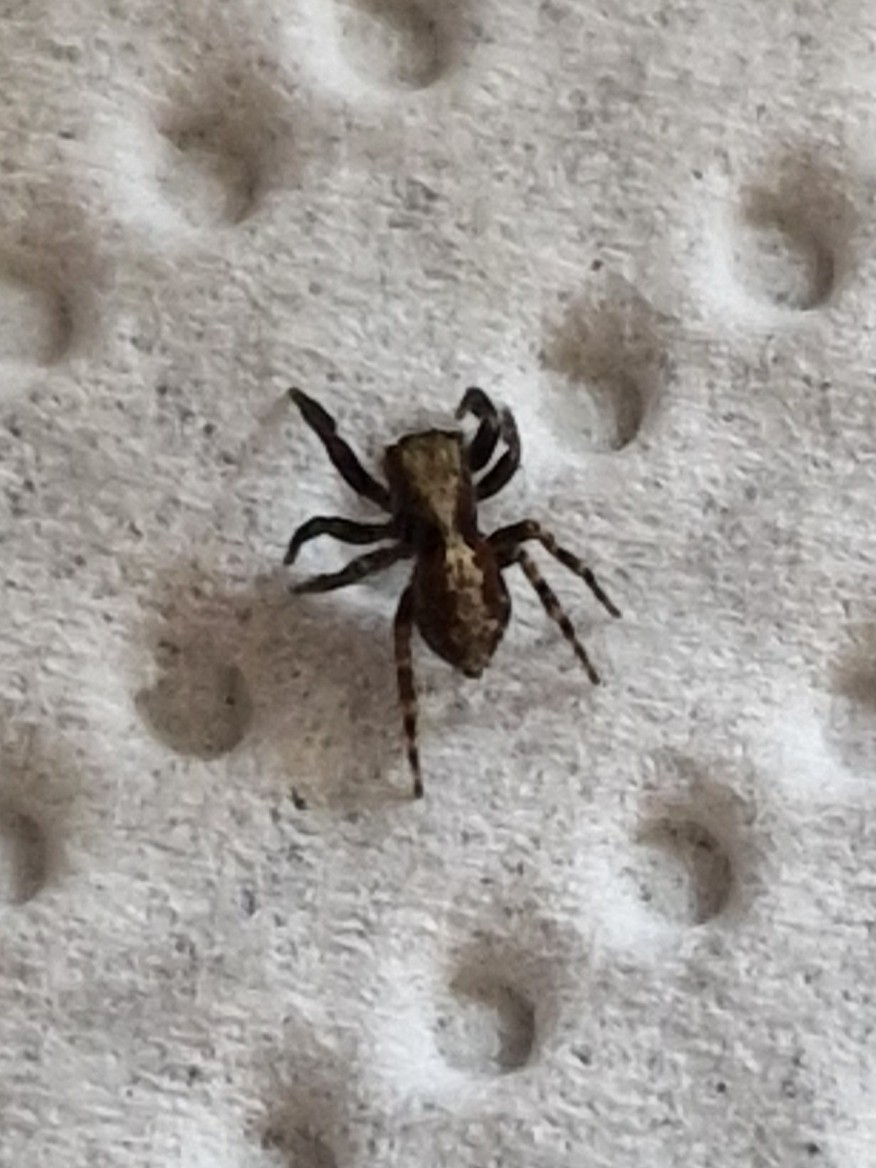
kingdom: Animalia
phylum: Arthropoda
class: Arachnida
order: Araneae
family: Salticidae
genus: Pseudeuophrys
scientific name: Pseudeuophrys lanigera
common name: Vinduesspringer
